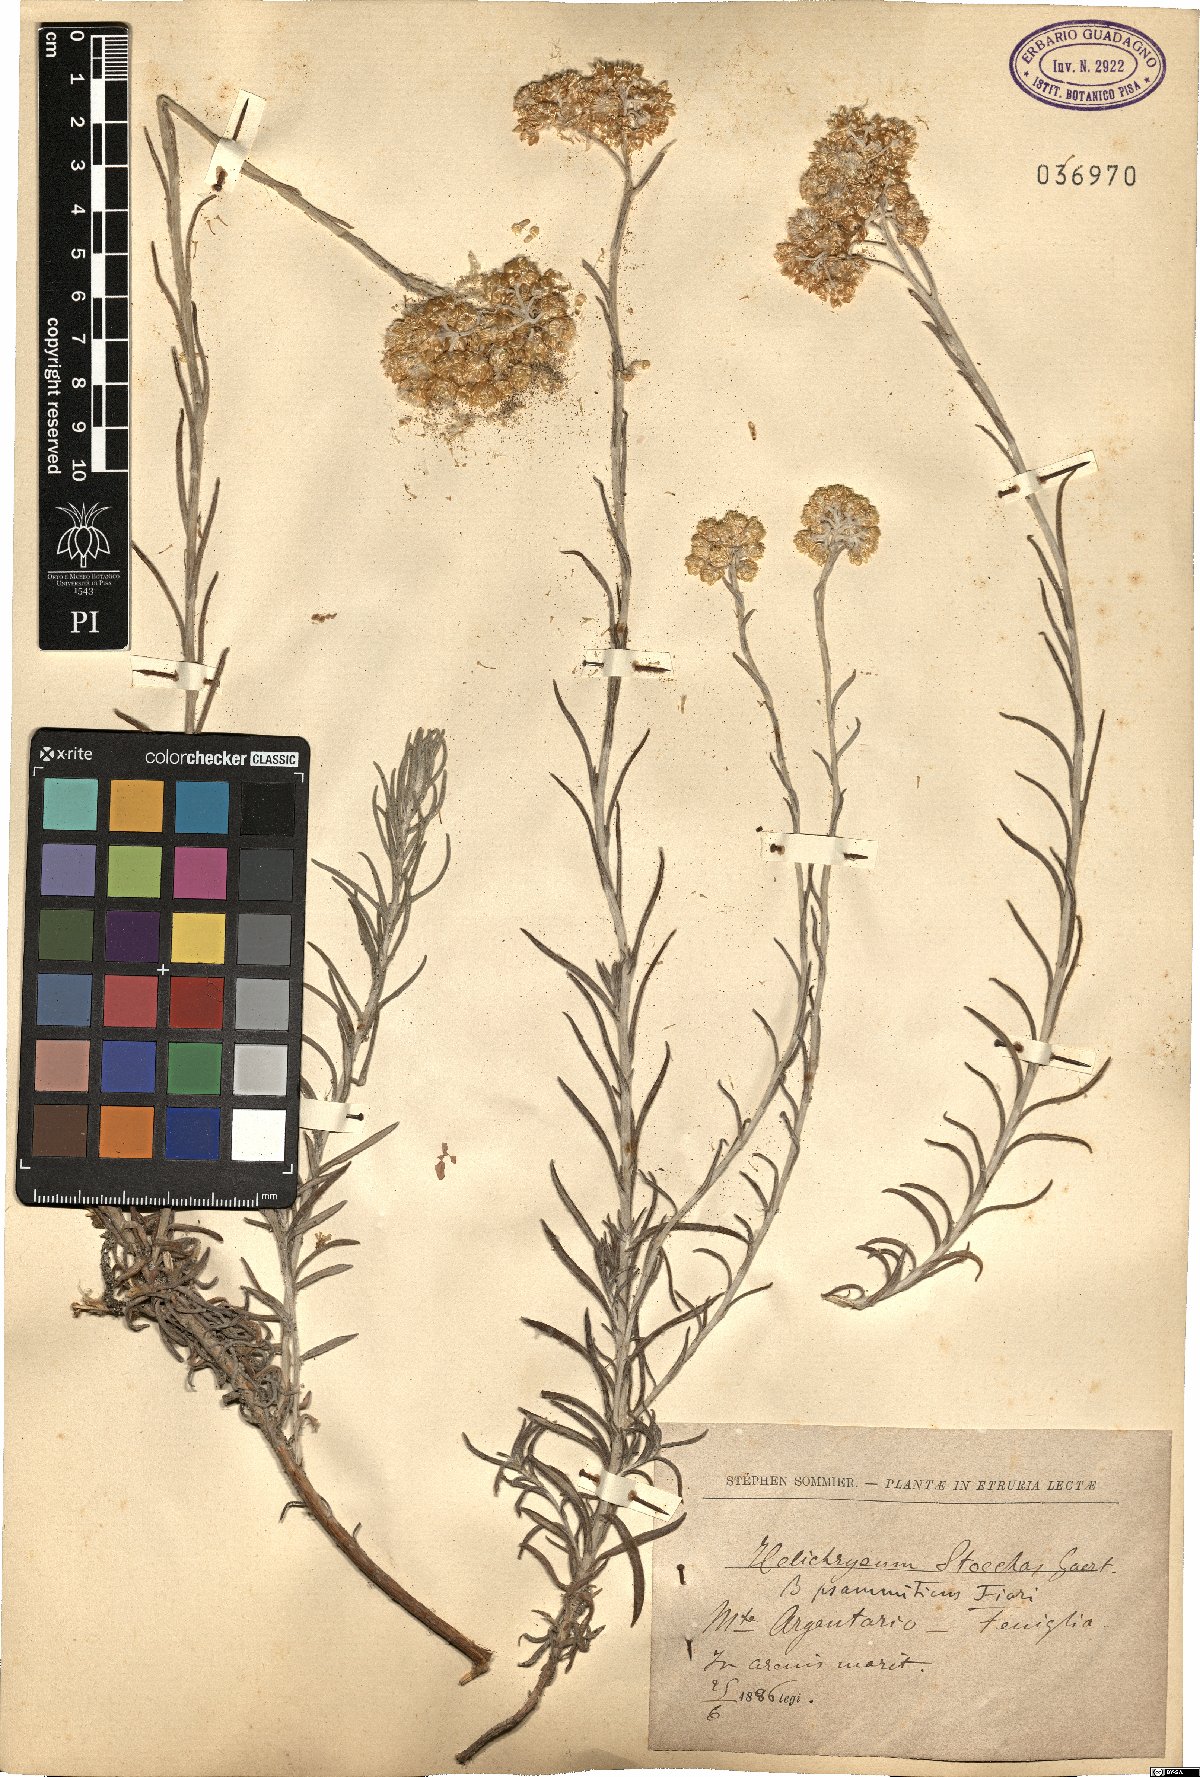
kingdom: Plantae
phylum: Tracheophyta
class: Magnoliopsida
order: Asterales
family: Asteraceae
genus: Helichrysum
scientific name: Helichrysum stoechas
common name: Goldilocks
